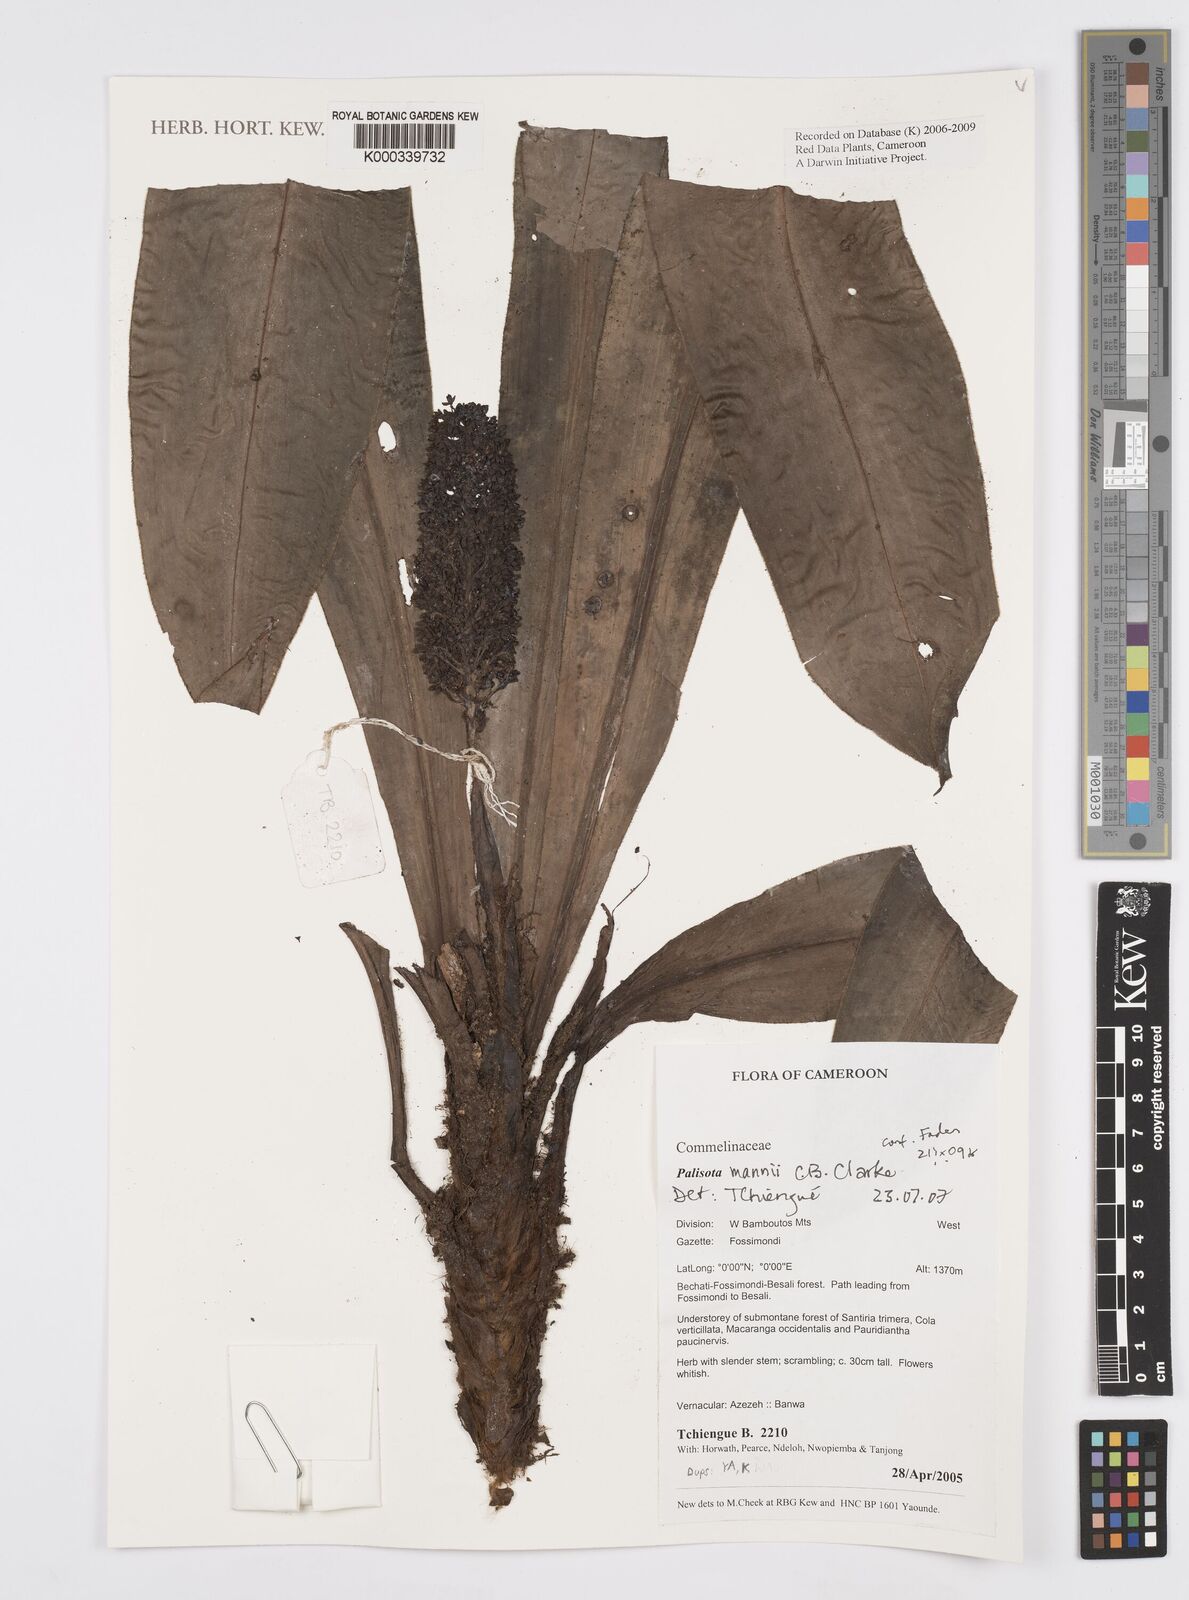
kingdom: Plantae
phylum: Tracheophyta
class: Liliopsida
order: Commelinales
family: Commelinaceae
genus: Palisota
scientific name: Palisota mannii
